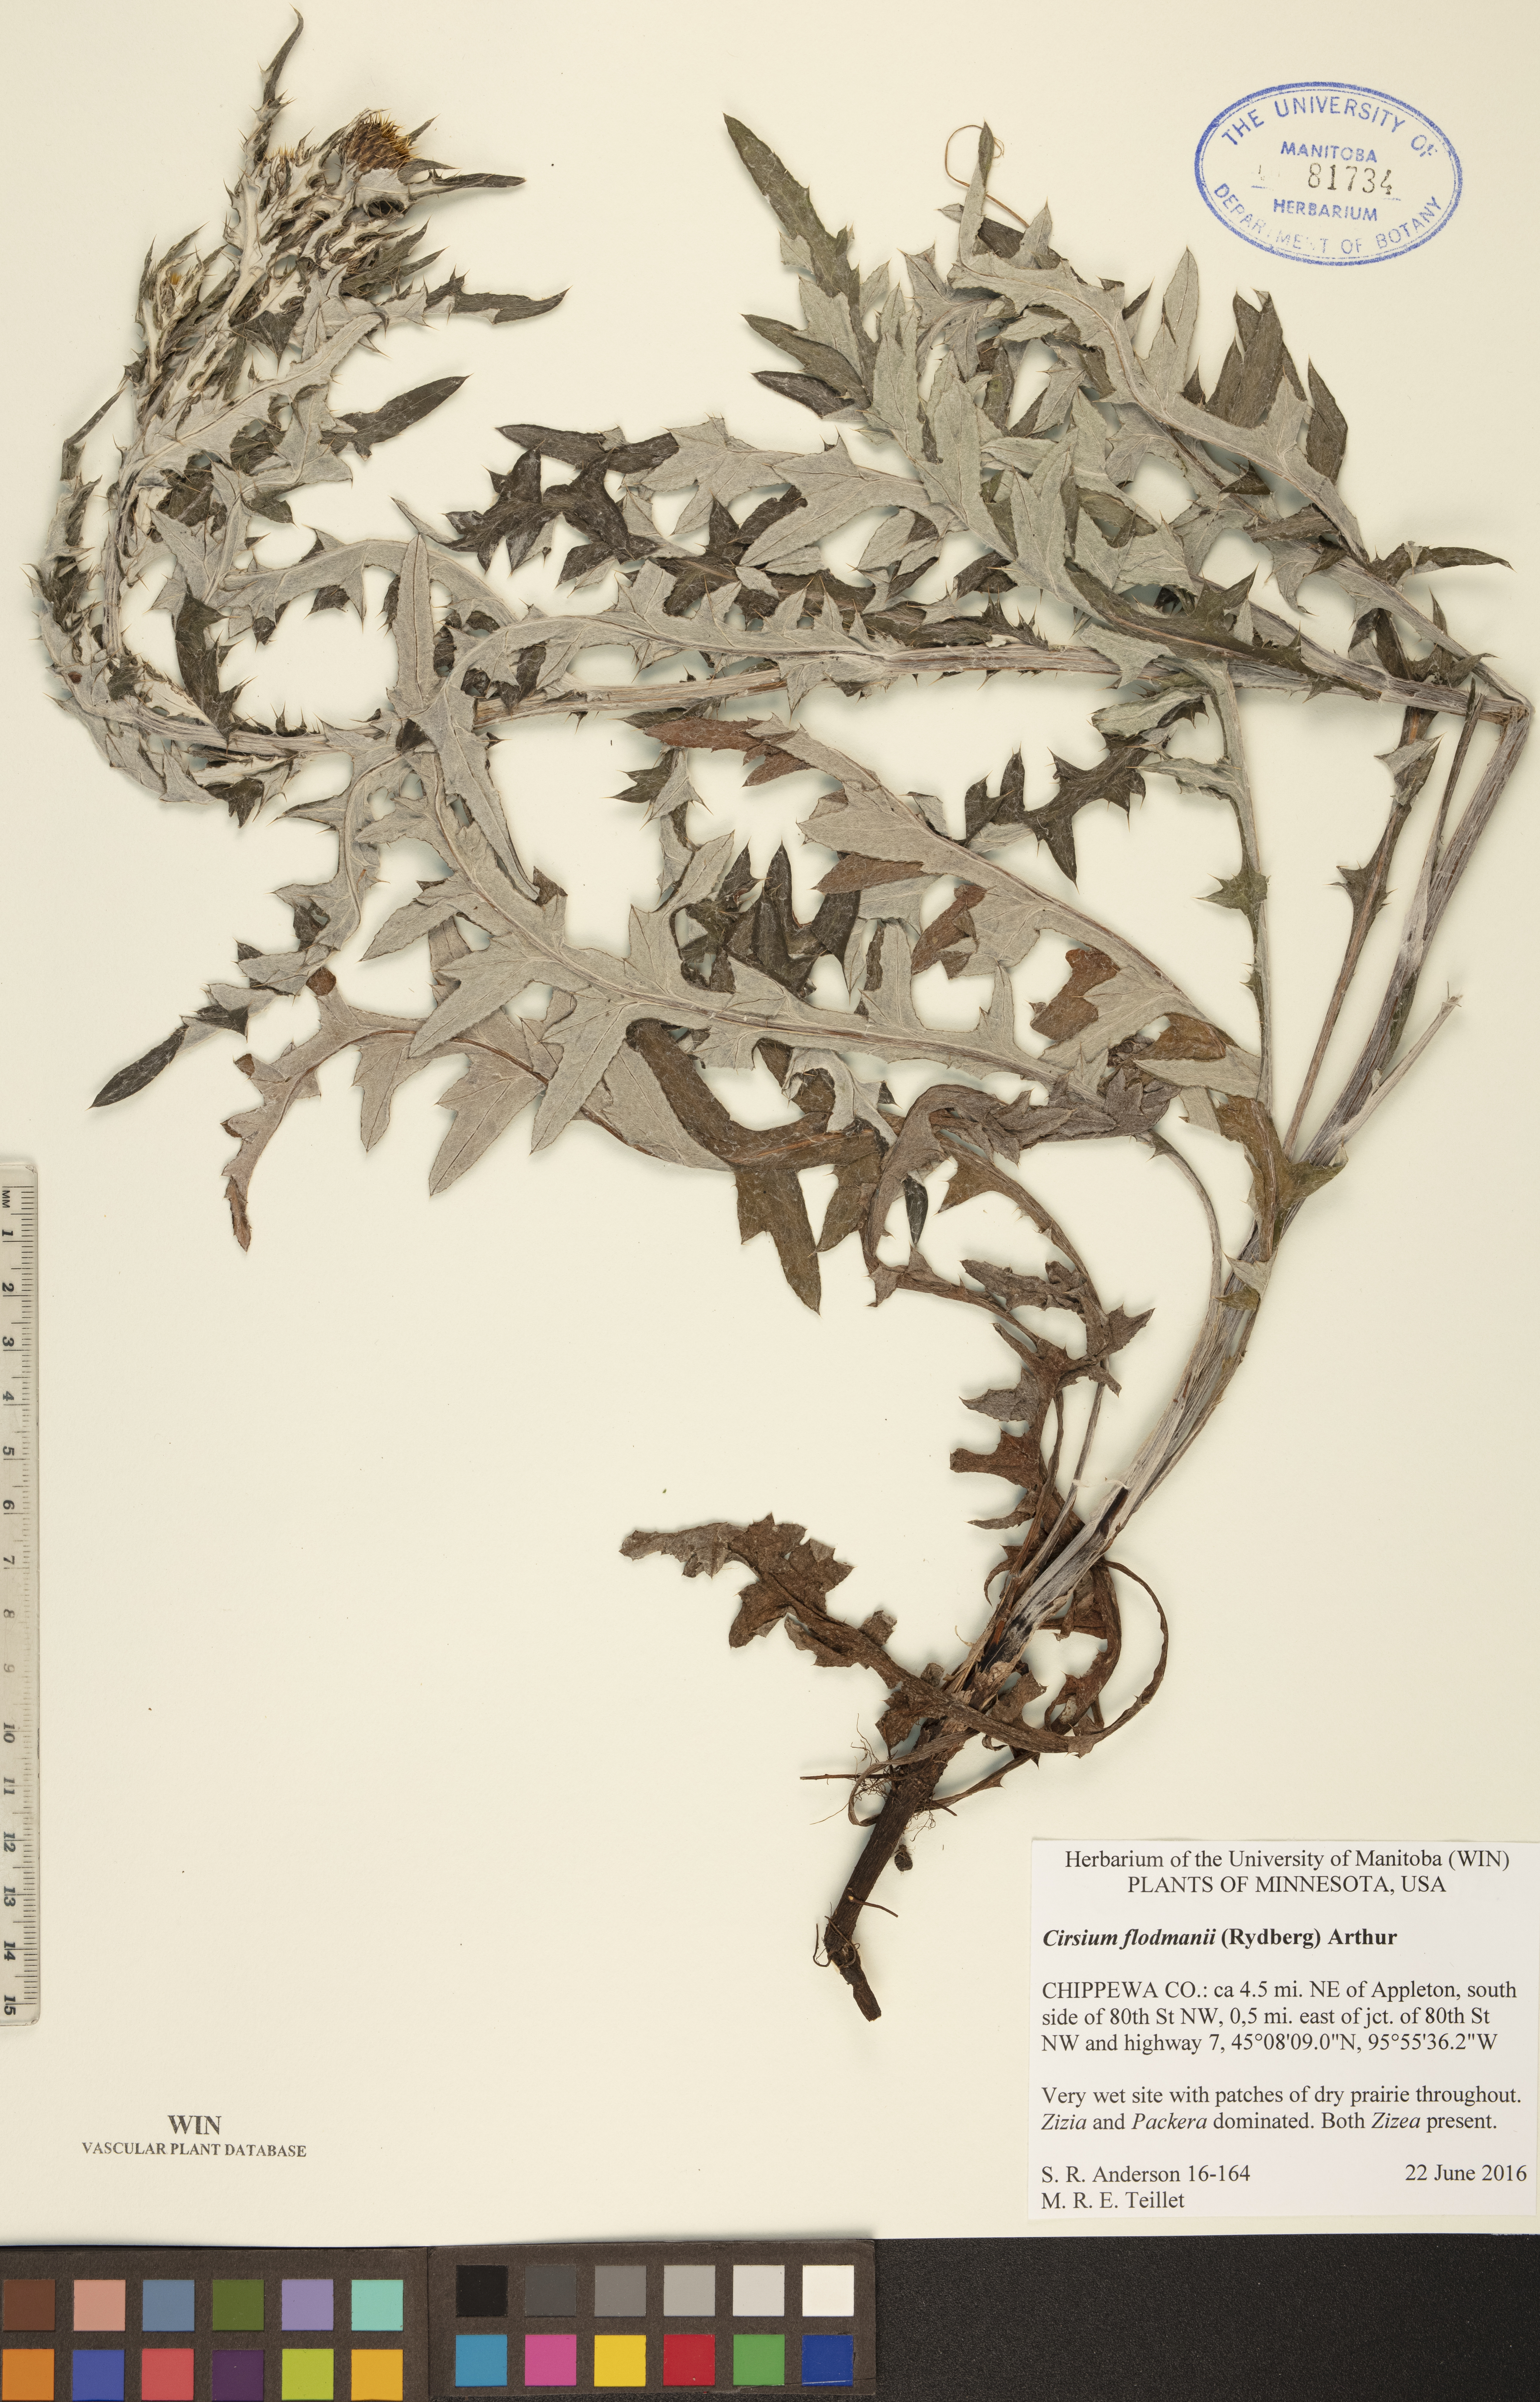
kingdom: Plantae
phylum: Tracheophyta
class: Magnoliopsida
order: Asterales
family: Asteraceae
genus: Cirsium
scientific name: Cirsium flodmanii
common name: Flodman's thistle
